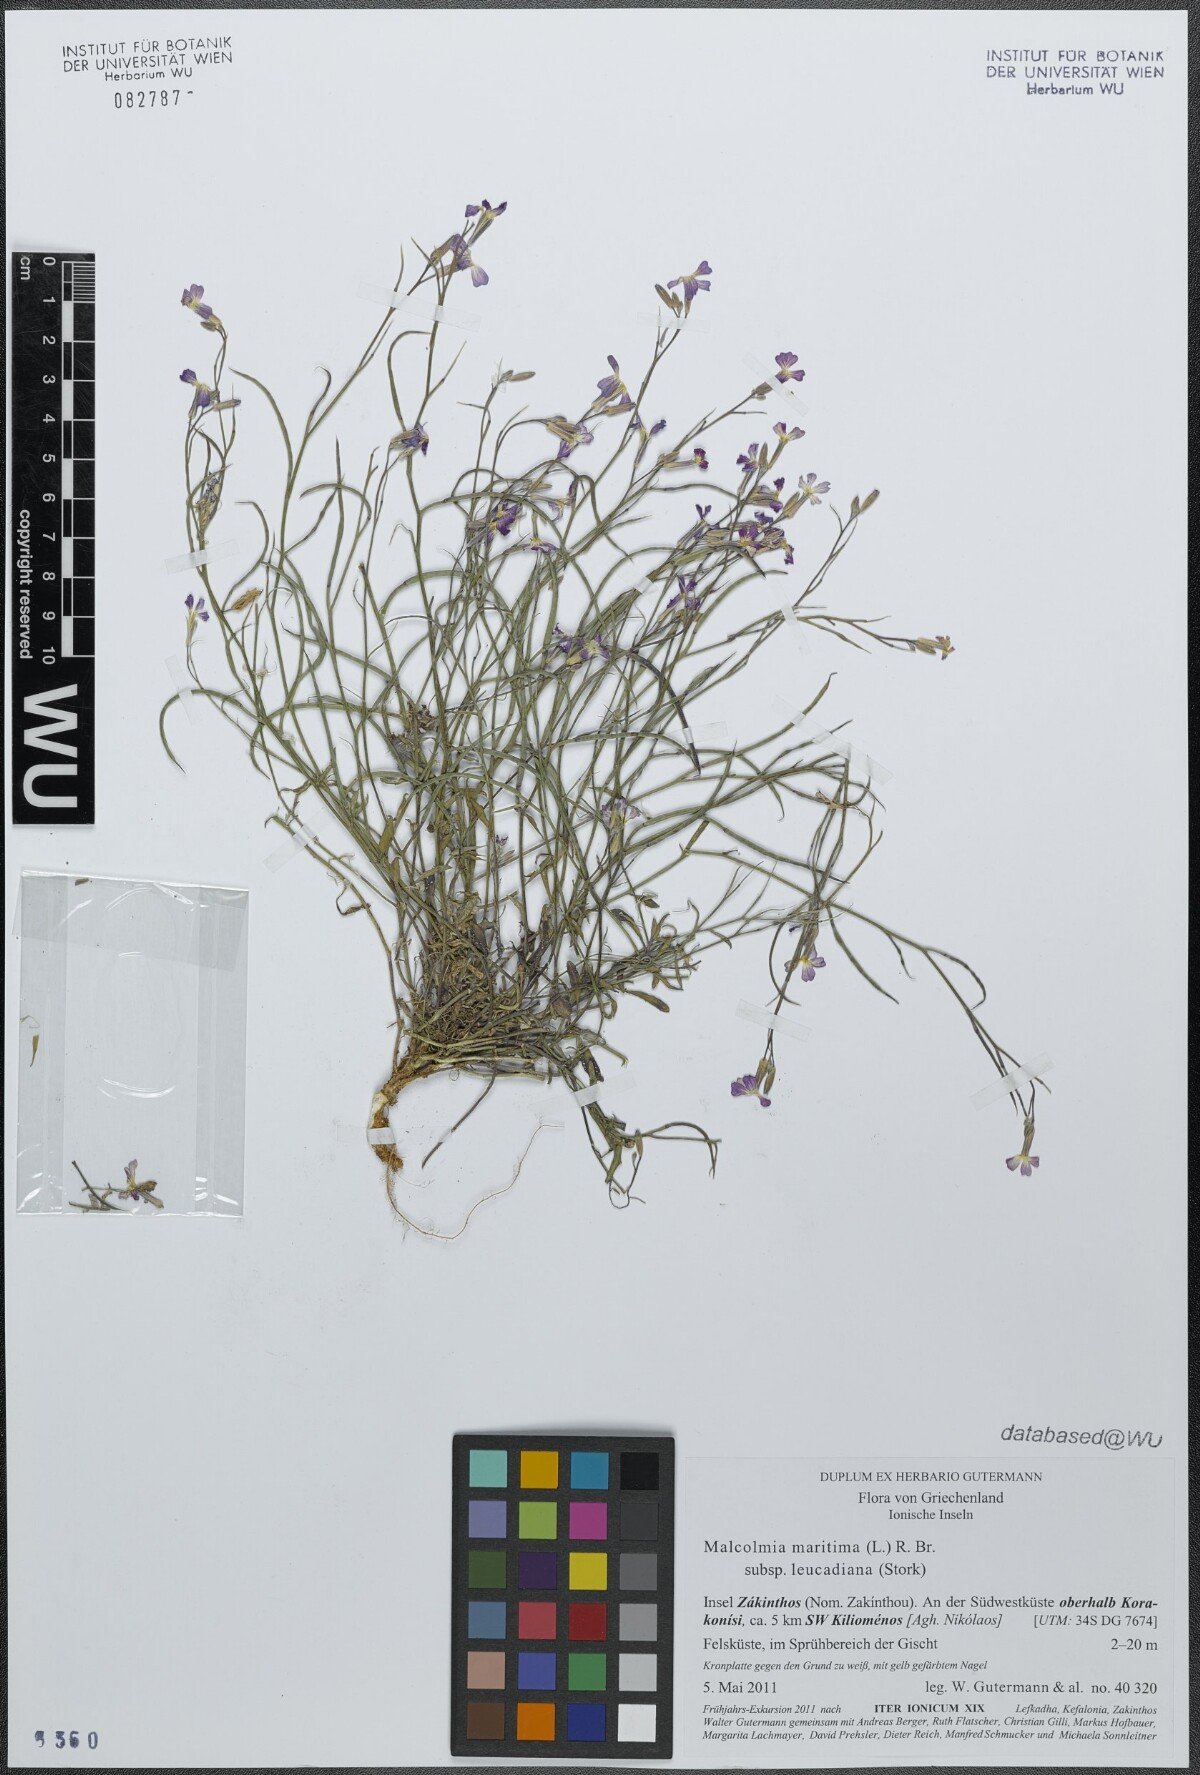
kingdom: Plantae
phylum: Tracheophyta
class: Magnoliopsida
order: Brassicales
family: Brassicaceae
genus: Malcolmia
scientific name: Malcolmia maritima
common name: Virginia stock
